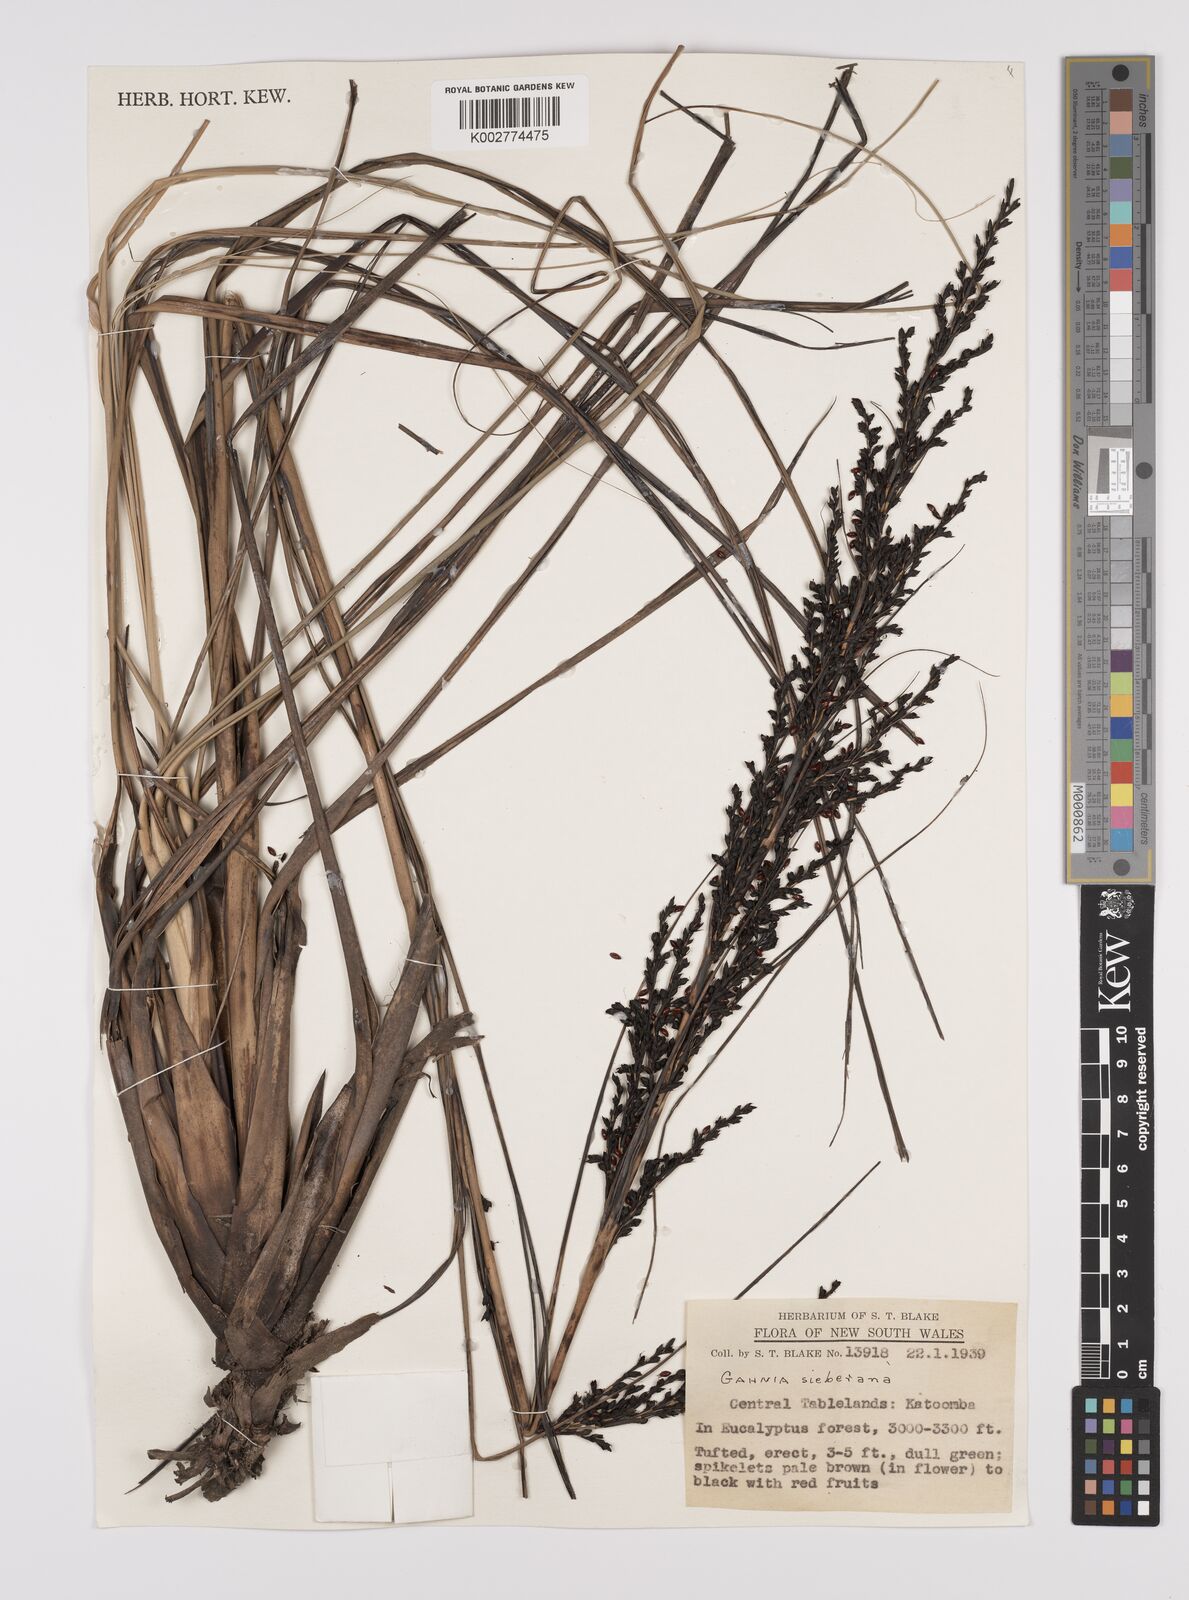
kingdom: Plantae
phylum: Tracheophyta
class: Liliopsida
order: Poales
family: Cyperaceae
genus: Gahnia
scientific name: Gahnia sieberiana
